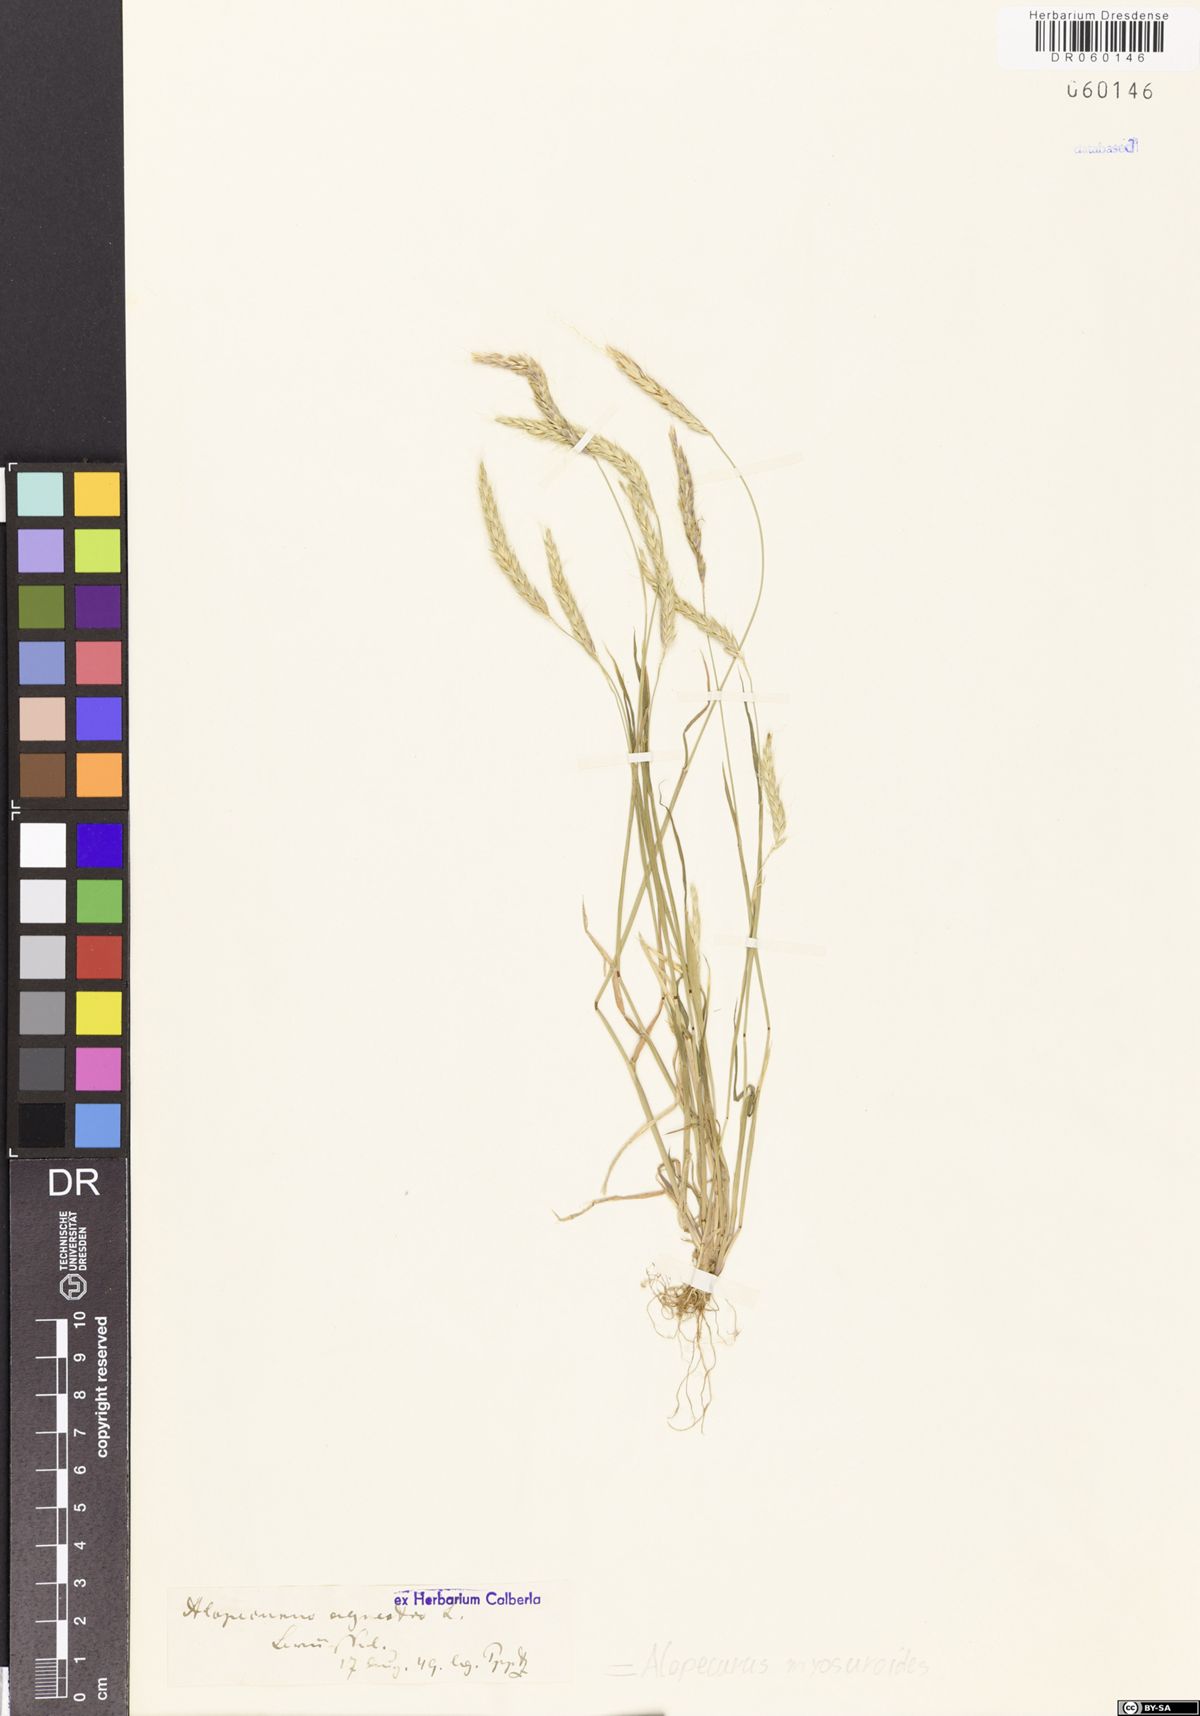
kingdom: Plantae
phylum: Tracheophyta
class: Liliopsida
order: Poales
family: Poaceae
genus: Alopecurus
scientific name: Alopecurus myosuroides
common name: Black-grass
